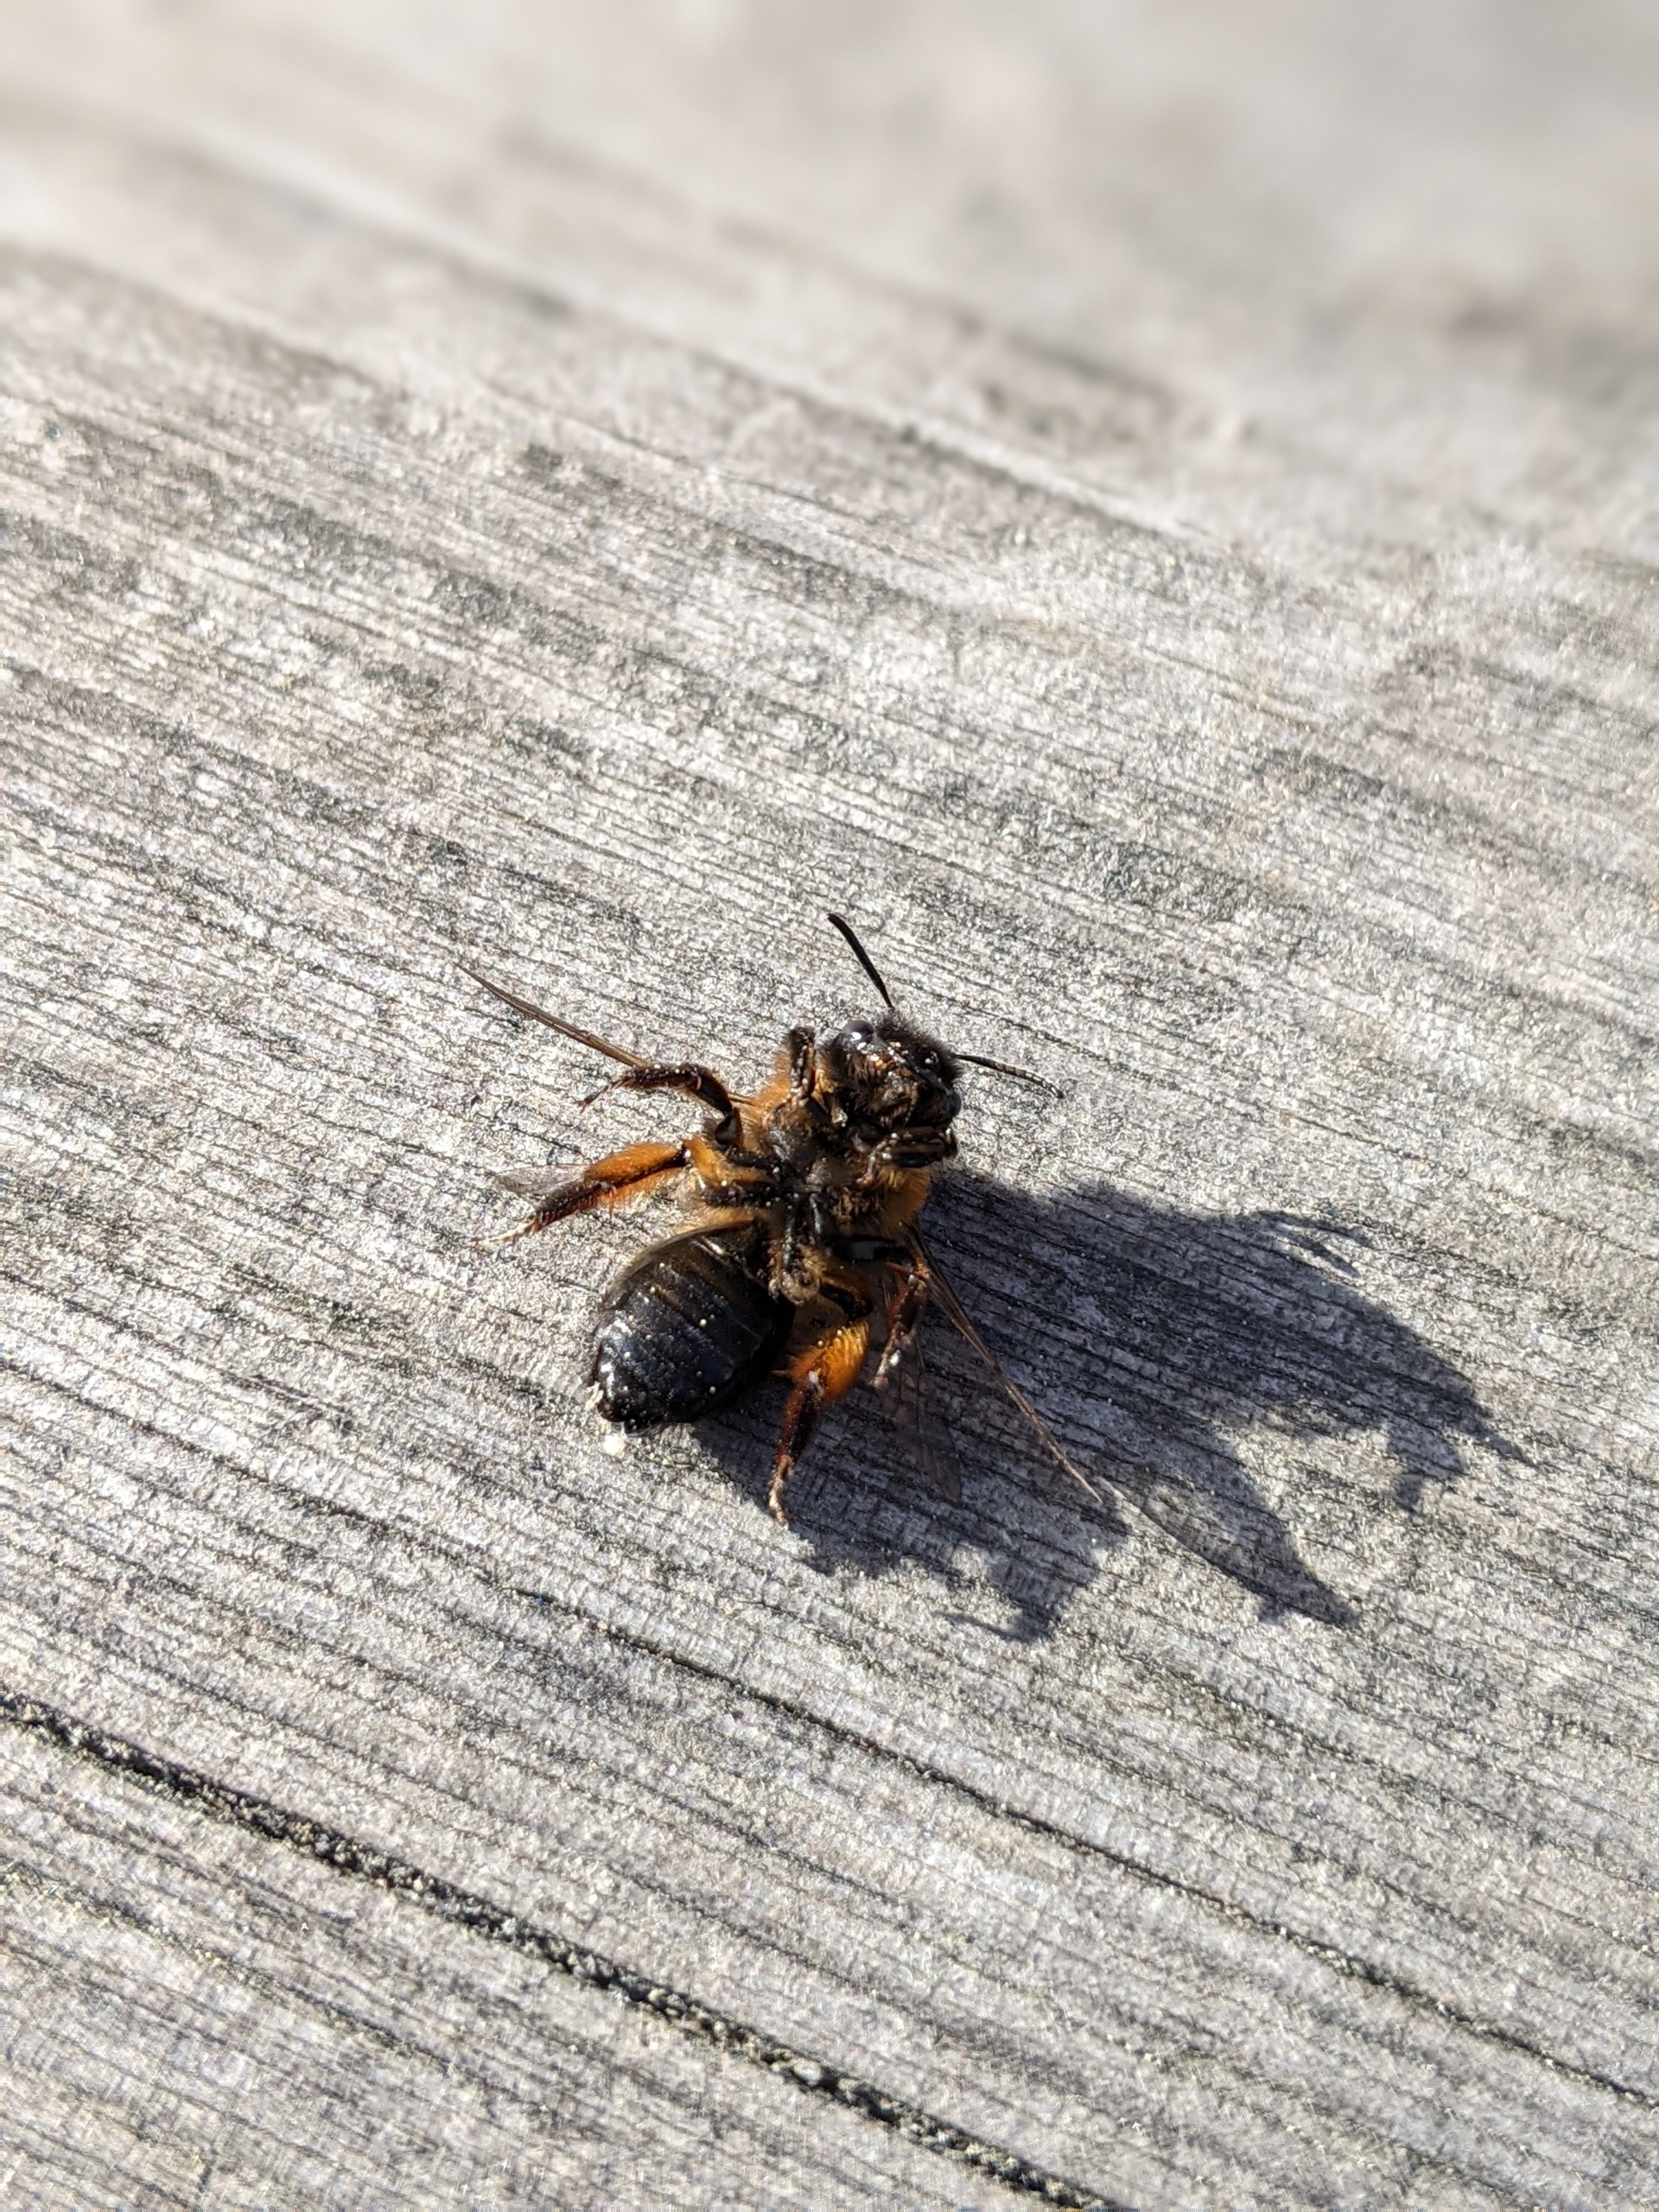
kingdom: Animalia
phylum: Arthropoda
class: Insecta
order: Hymenoptera
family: Andrenidae
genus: Andrena
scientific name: Andrena nigroaenea
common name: Sortbrun jordbi
